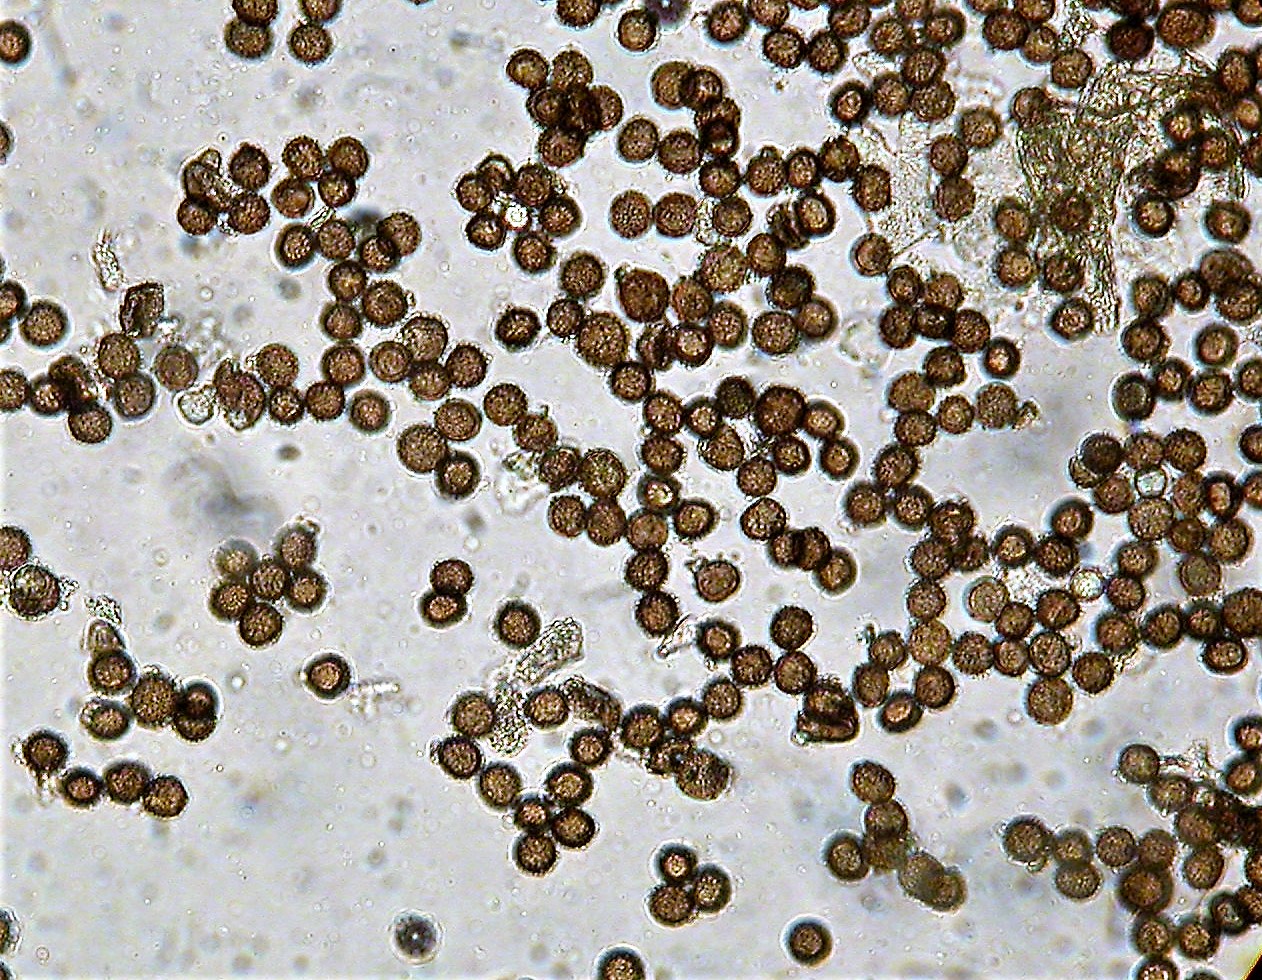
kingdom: Protozoa
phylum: Mycetozoa
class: Myxomycetes
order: Physarales
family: Physaraceae
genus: Badhamia
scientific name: Badhamia panicea
